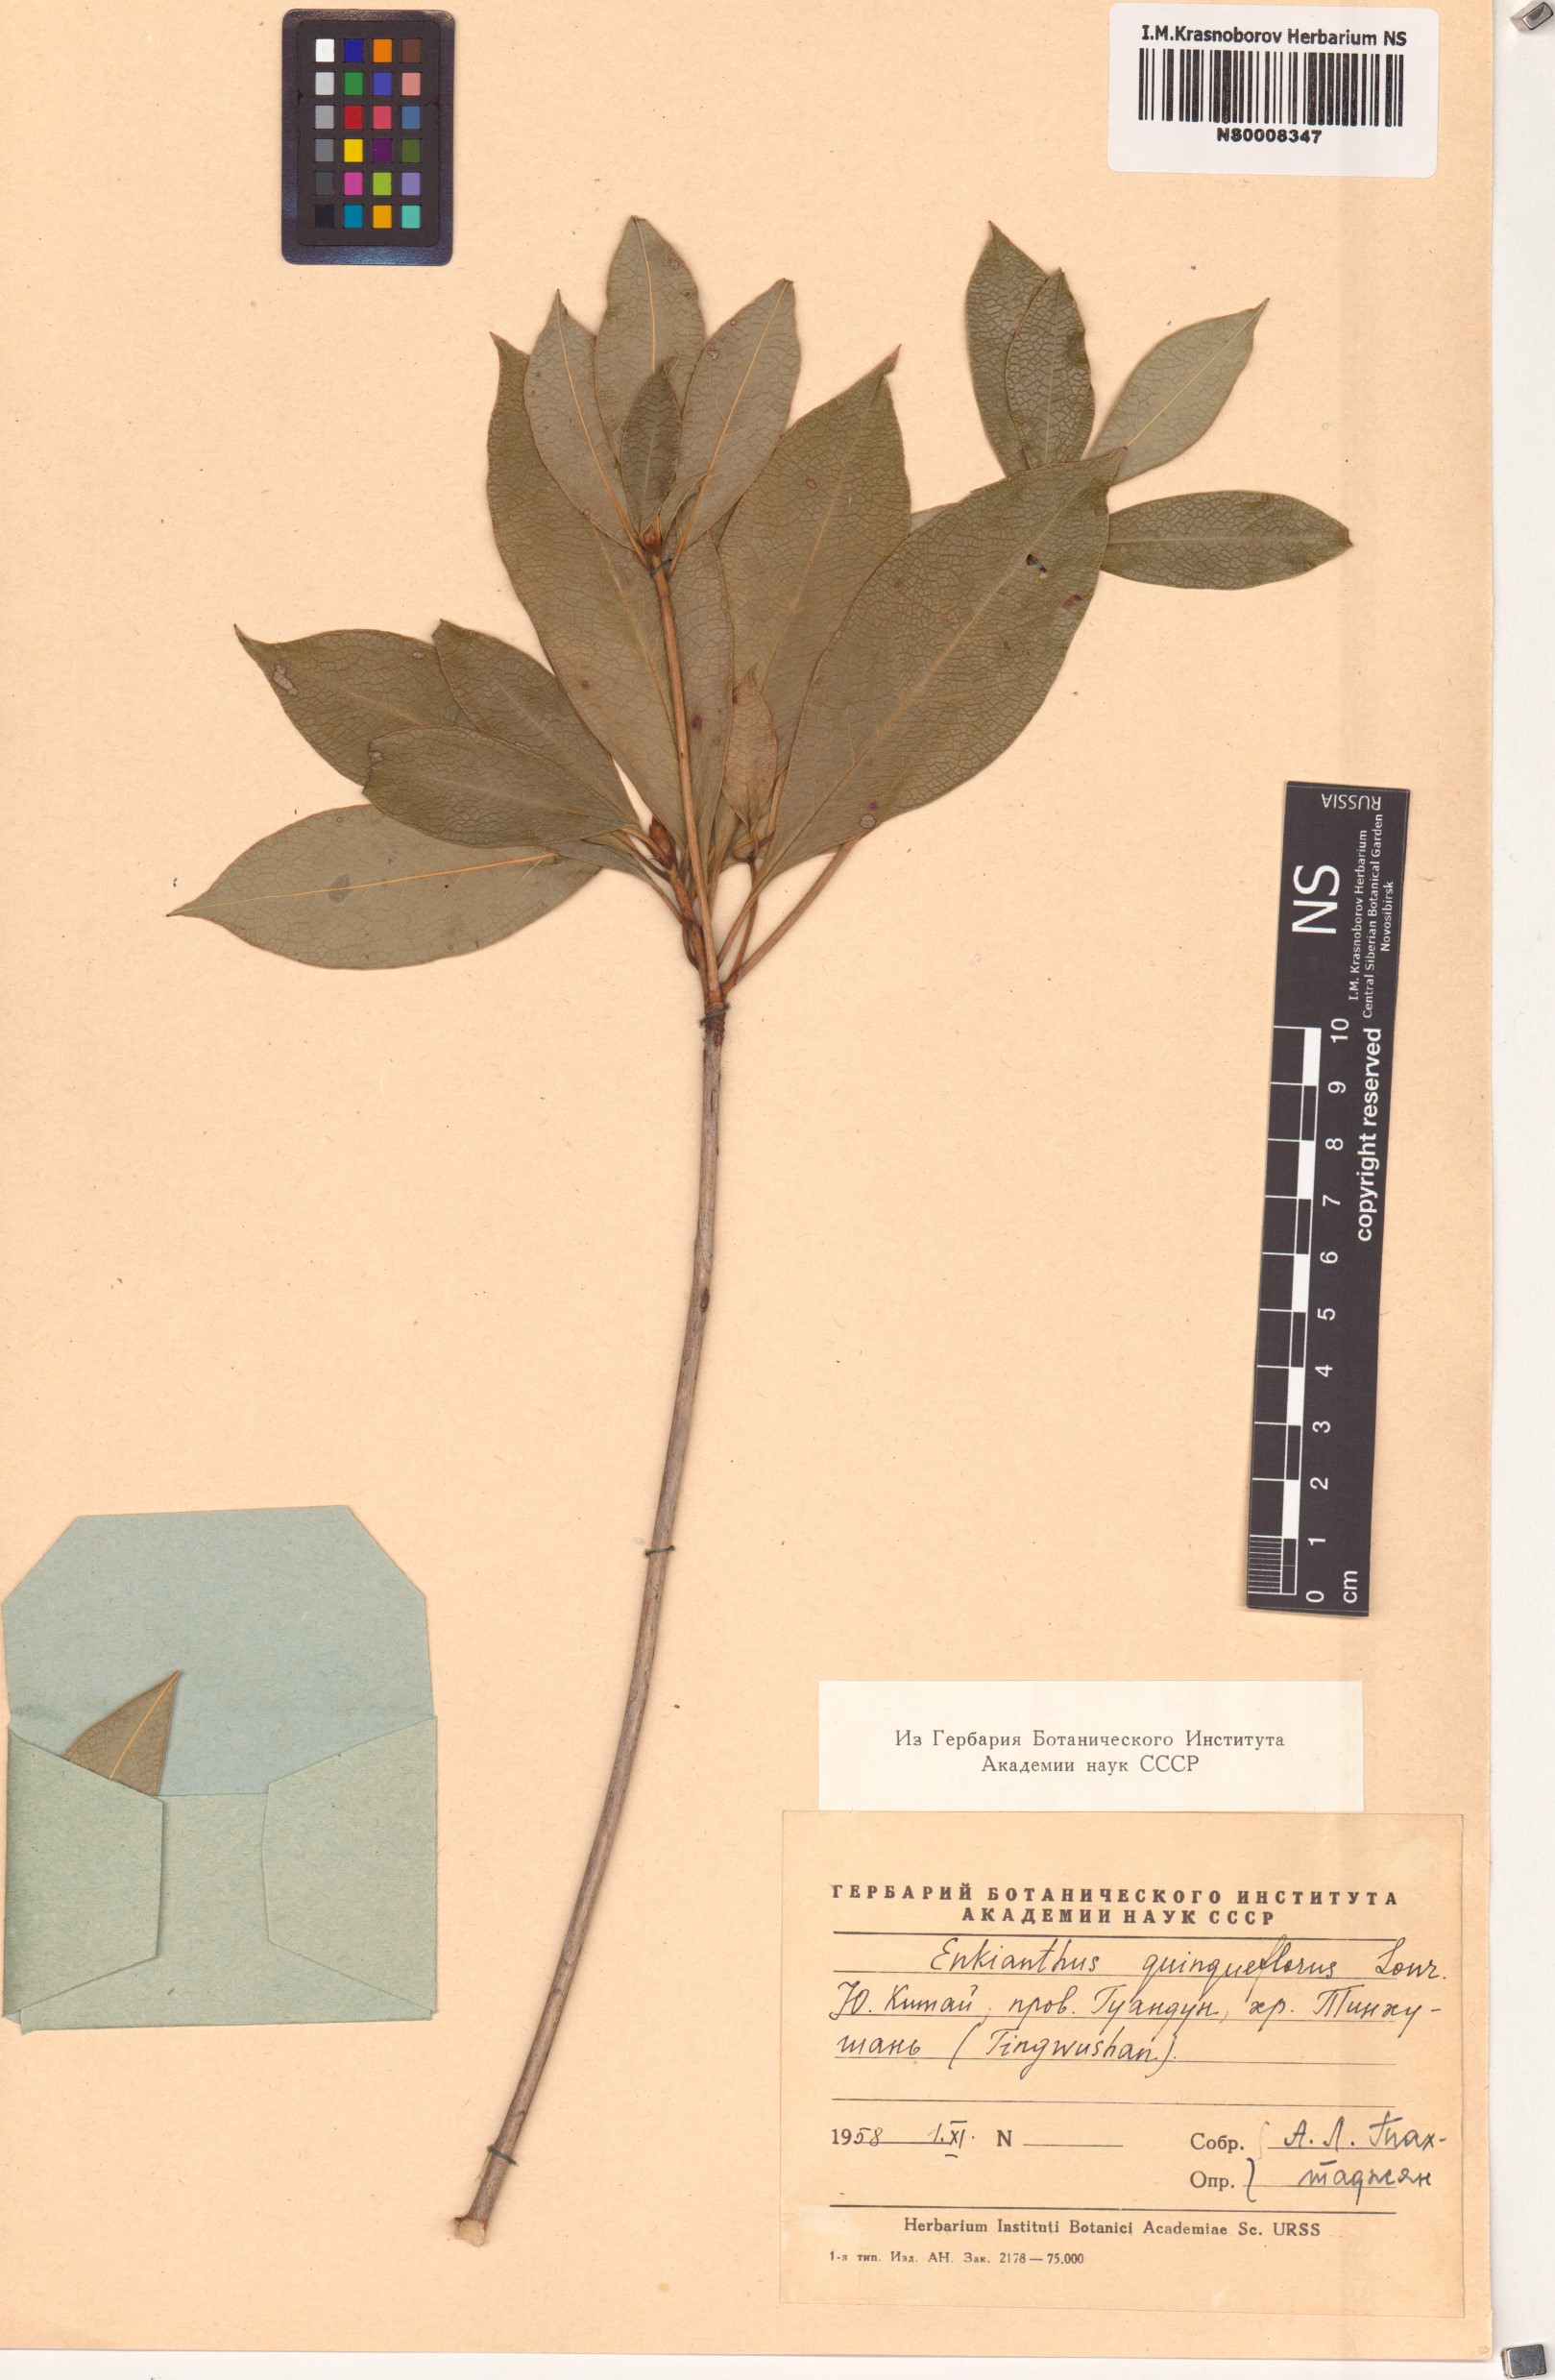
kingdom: Plantae
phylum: Tracheophyta
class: Magnoliopsida
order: Ericales
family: Ericaceae
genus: Enkianthus
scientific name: Enkianthus quinqueflorus
